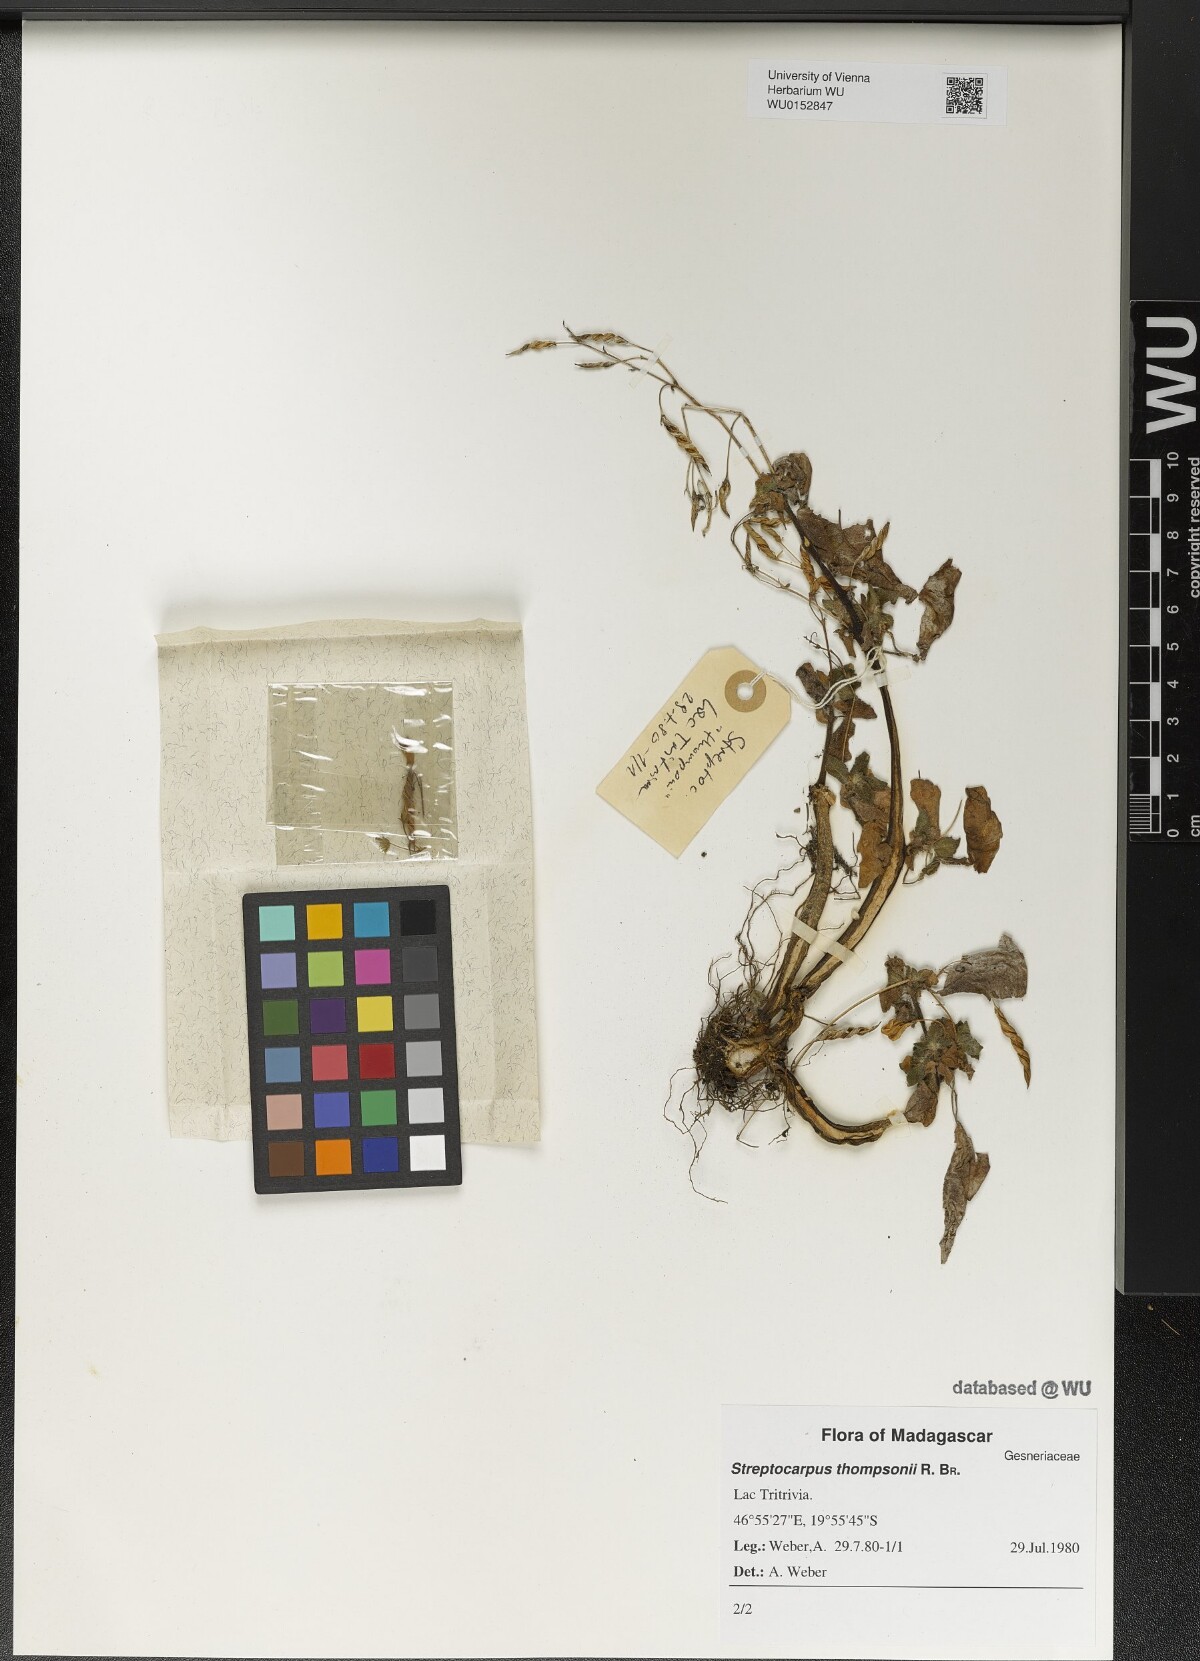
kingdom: Plantae
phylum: Tracheophyta
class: Magnoliopsida
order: Lamiales
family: Gesneriaceae
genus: Streptocarpus
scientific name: Streptocarpus thompsonii
